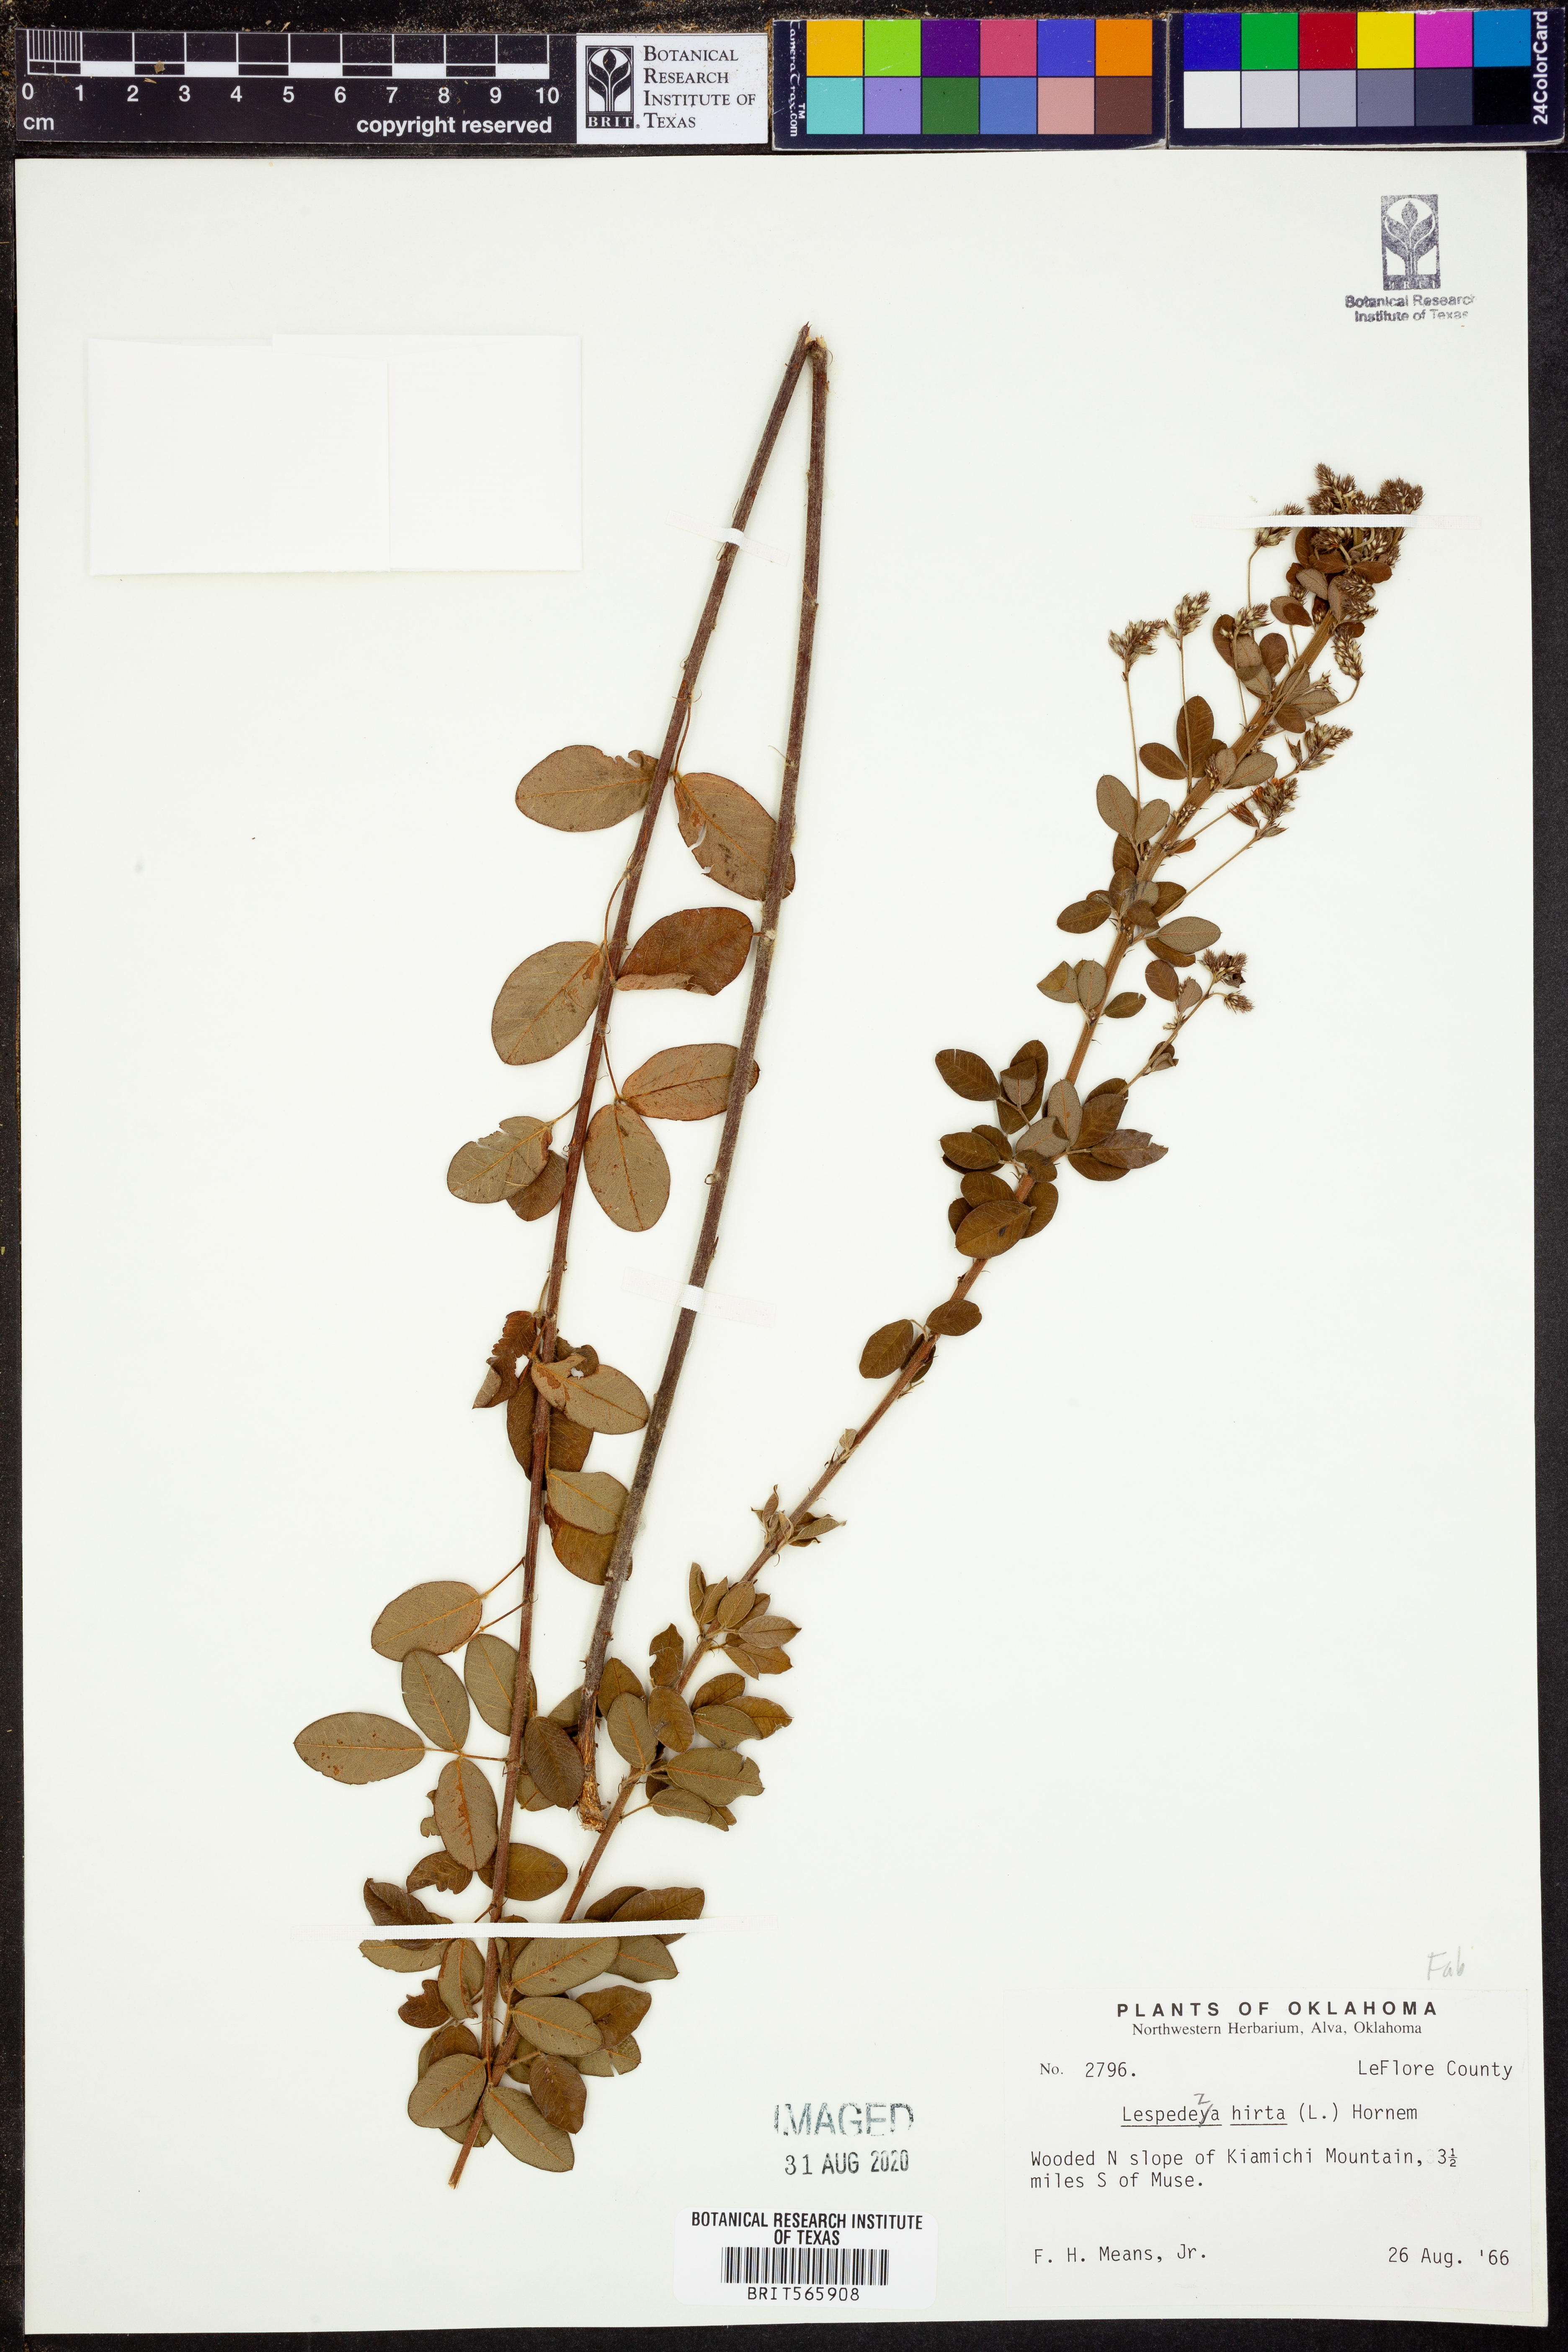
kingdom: Plantae
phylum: Tracheophyta
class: Magnoliopsida
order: Fabales
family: Fabaceae
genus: Lespedeza
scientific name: Lespedeza hirta
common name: Hairy lespedeza
